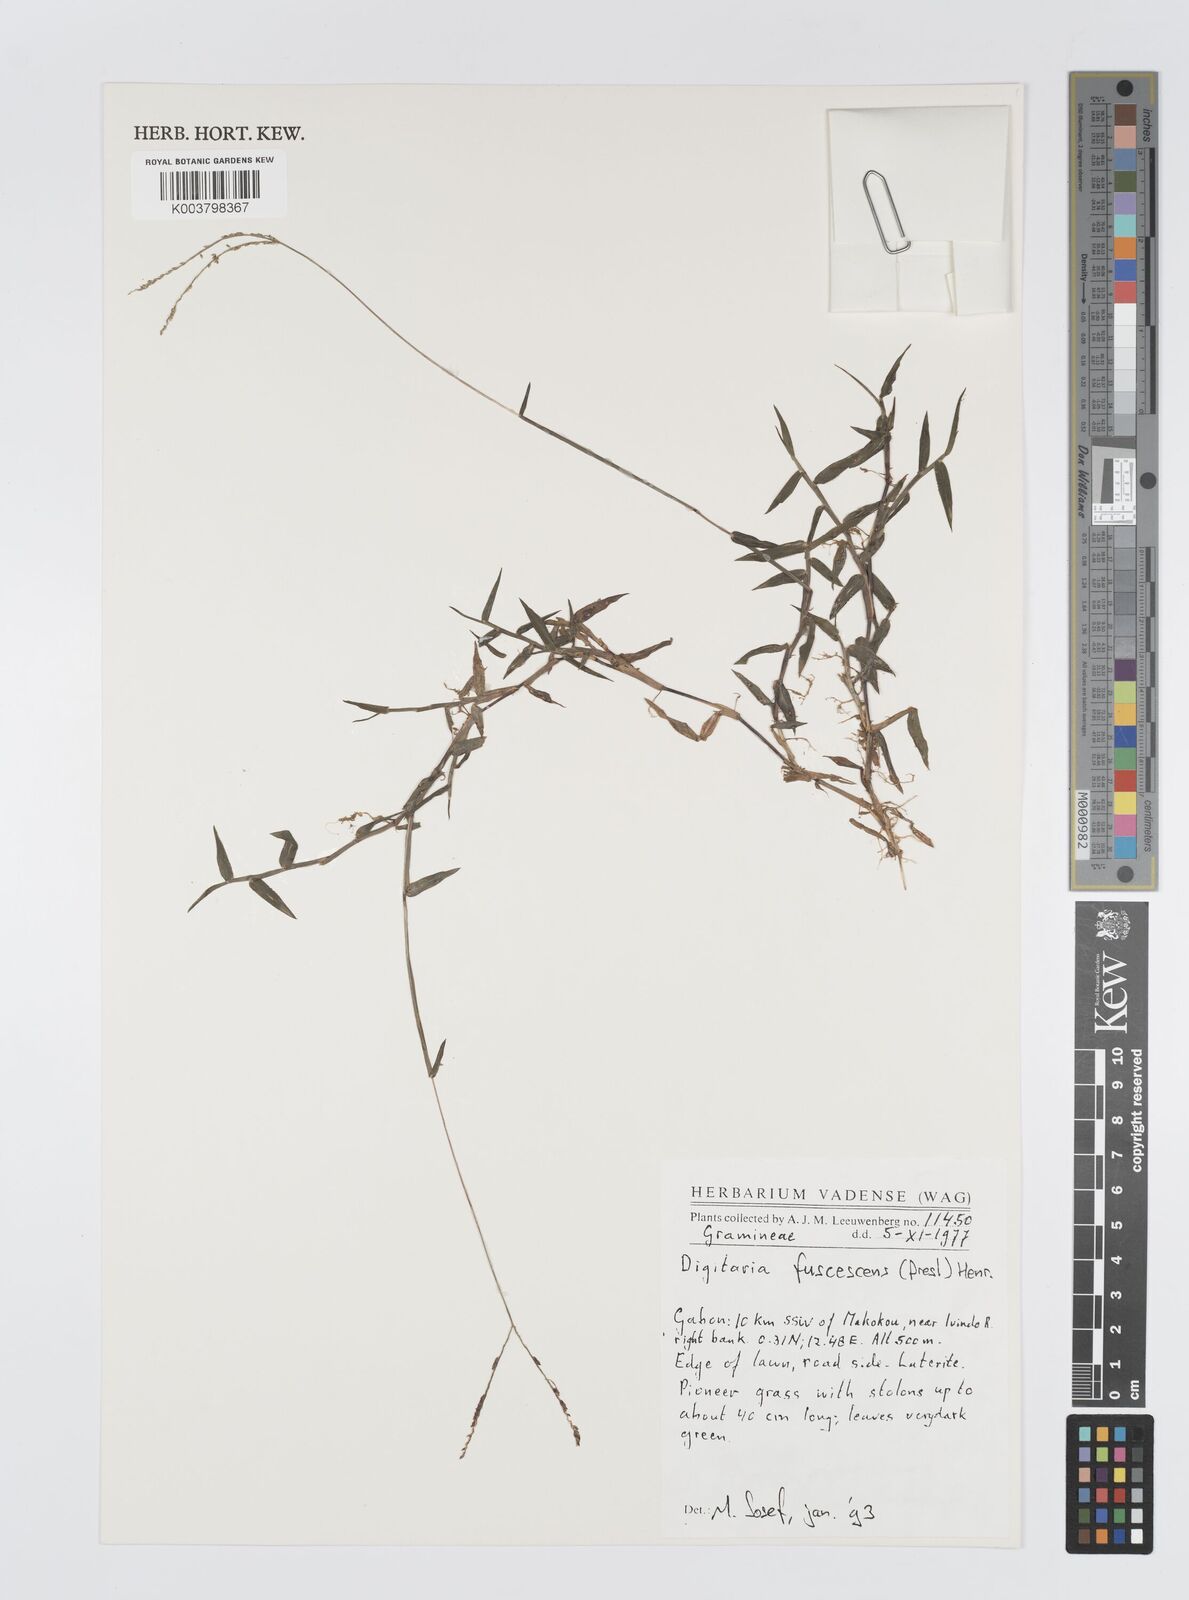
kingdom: Plantae
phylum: Tracheophyta
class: Liliopsida
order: Poales
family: Poaceae
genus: Digitaria
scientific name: Digitaria fuscescens
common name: Yellow crabgrass
